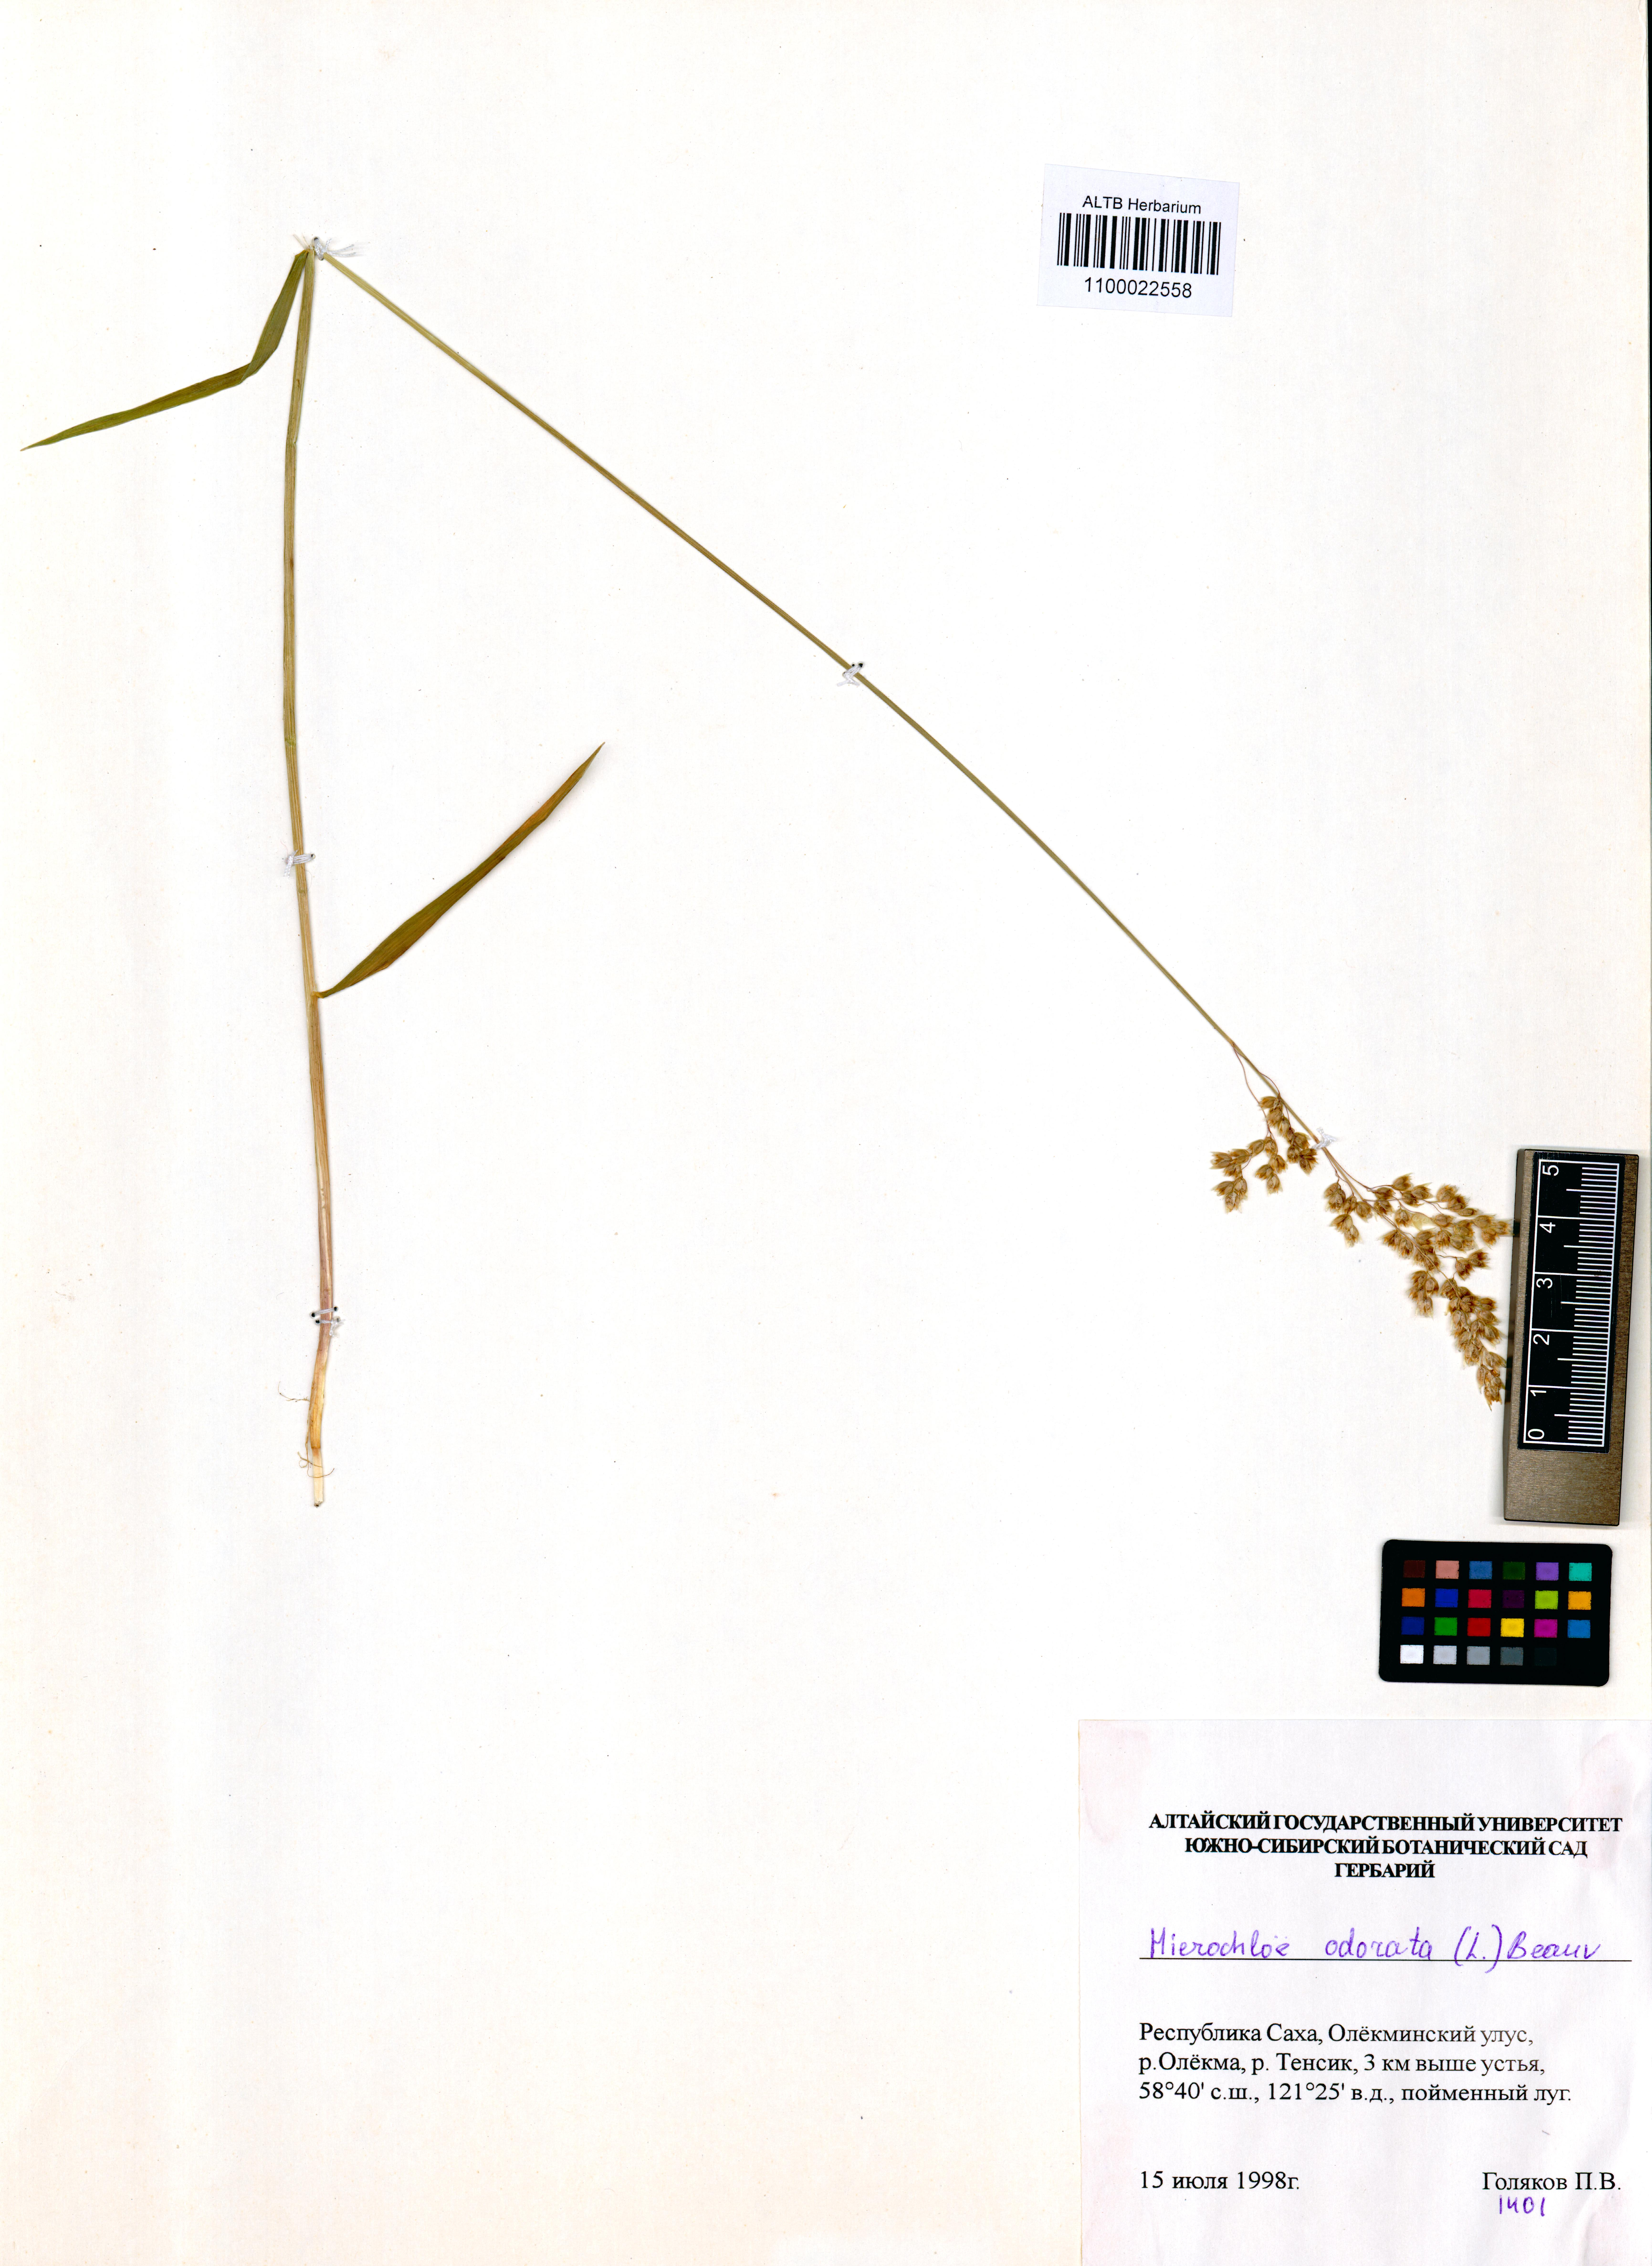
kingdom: Plantae
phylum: Tracheophyta
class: Liliopsida
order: Poales
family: Poaceae
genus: Anthoxanthum
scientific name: Anthoxanthum nitens
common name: Holy grass
